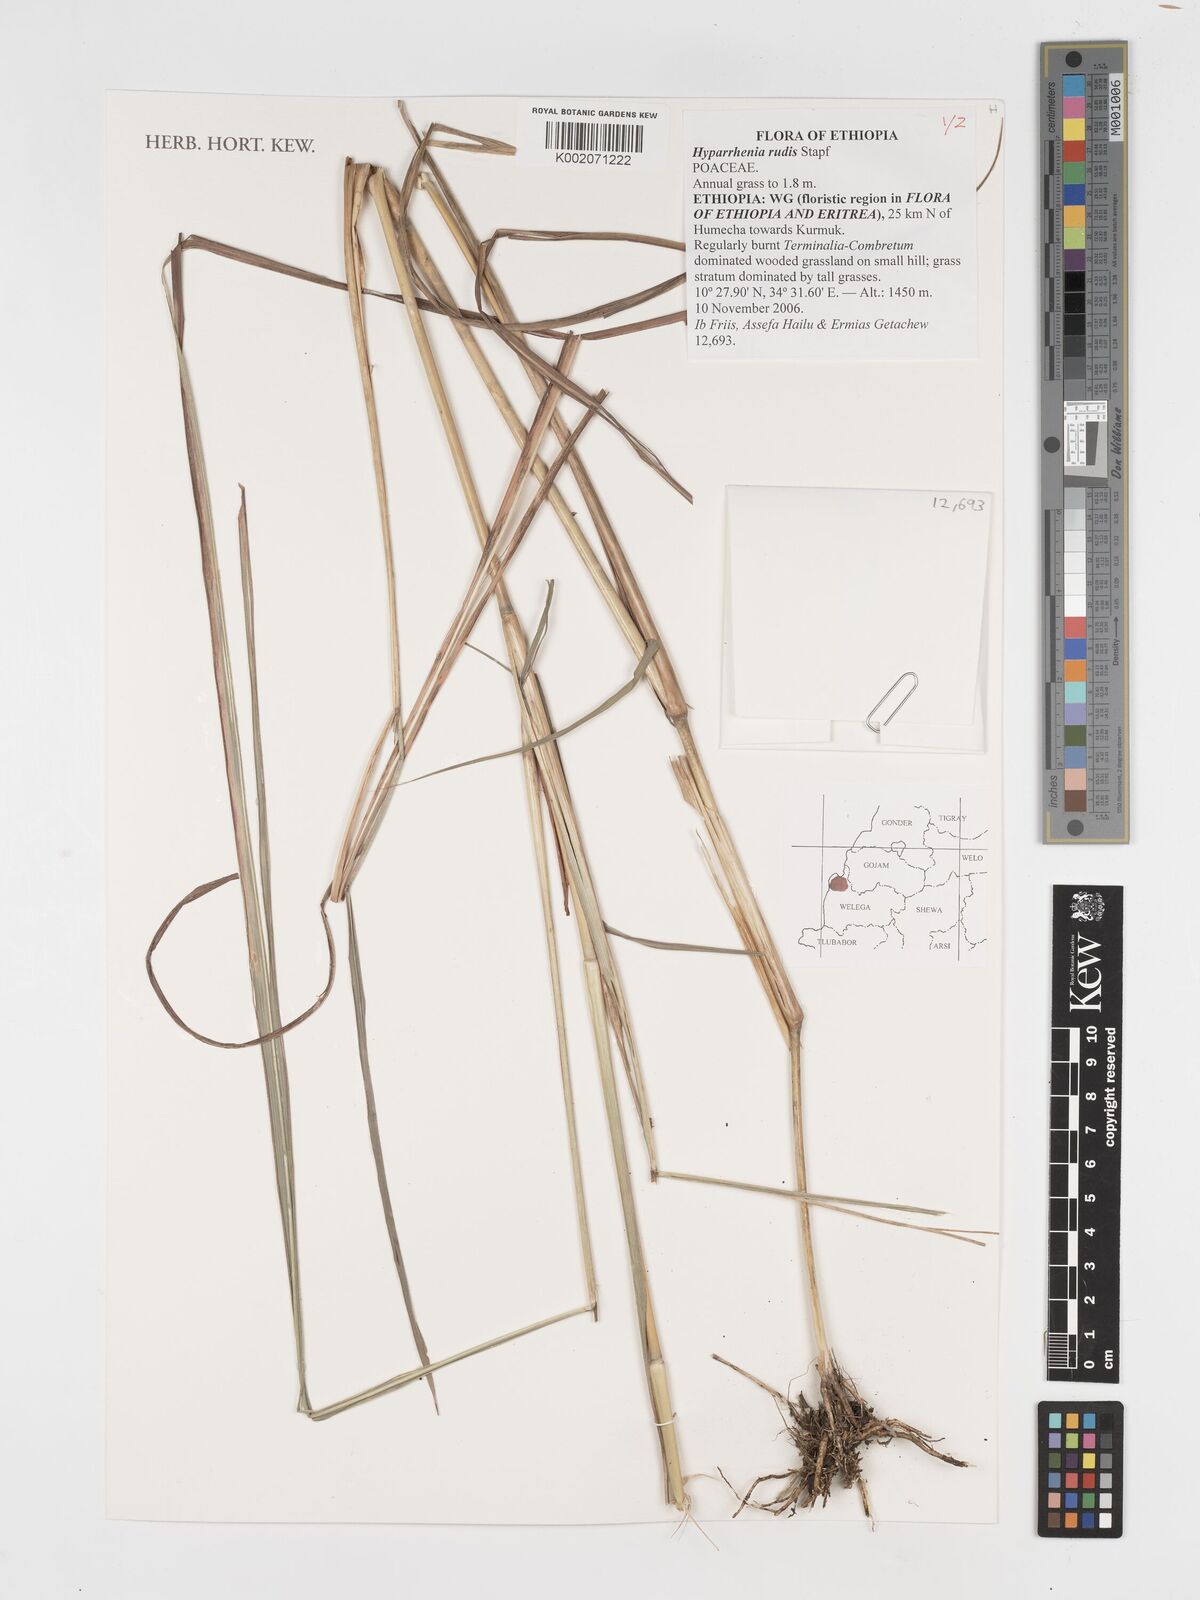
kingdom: Plantae
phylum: Tracheophyta
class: Liliopsida
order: Poales
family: Poaceae
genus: Hyparrhenia
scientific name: Hyparrhenia rudis
